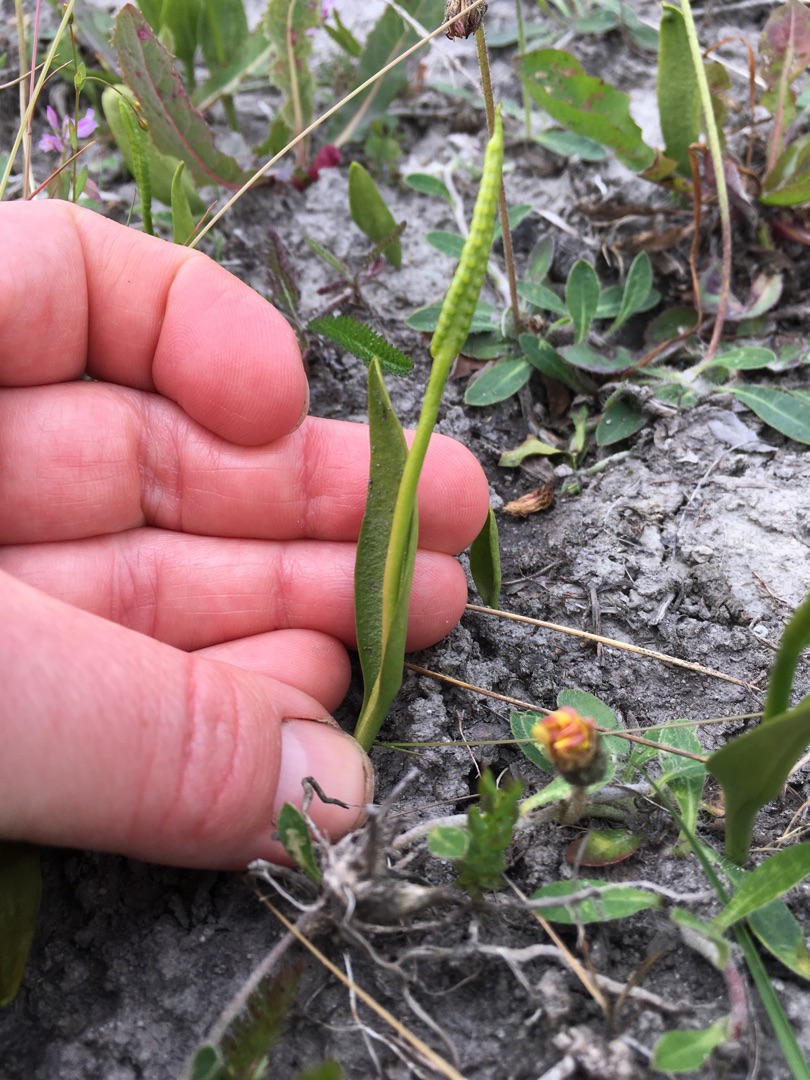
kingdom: Plantae
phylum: Tracheophyta
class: Polypodiopsida
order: Ophioglossales
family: Ophioglossaceae
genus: Ophioglossum
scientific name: Ophioglossum vulgatum
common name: Slangetunge
